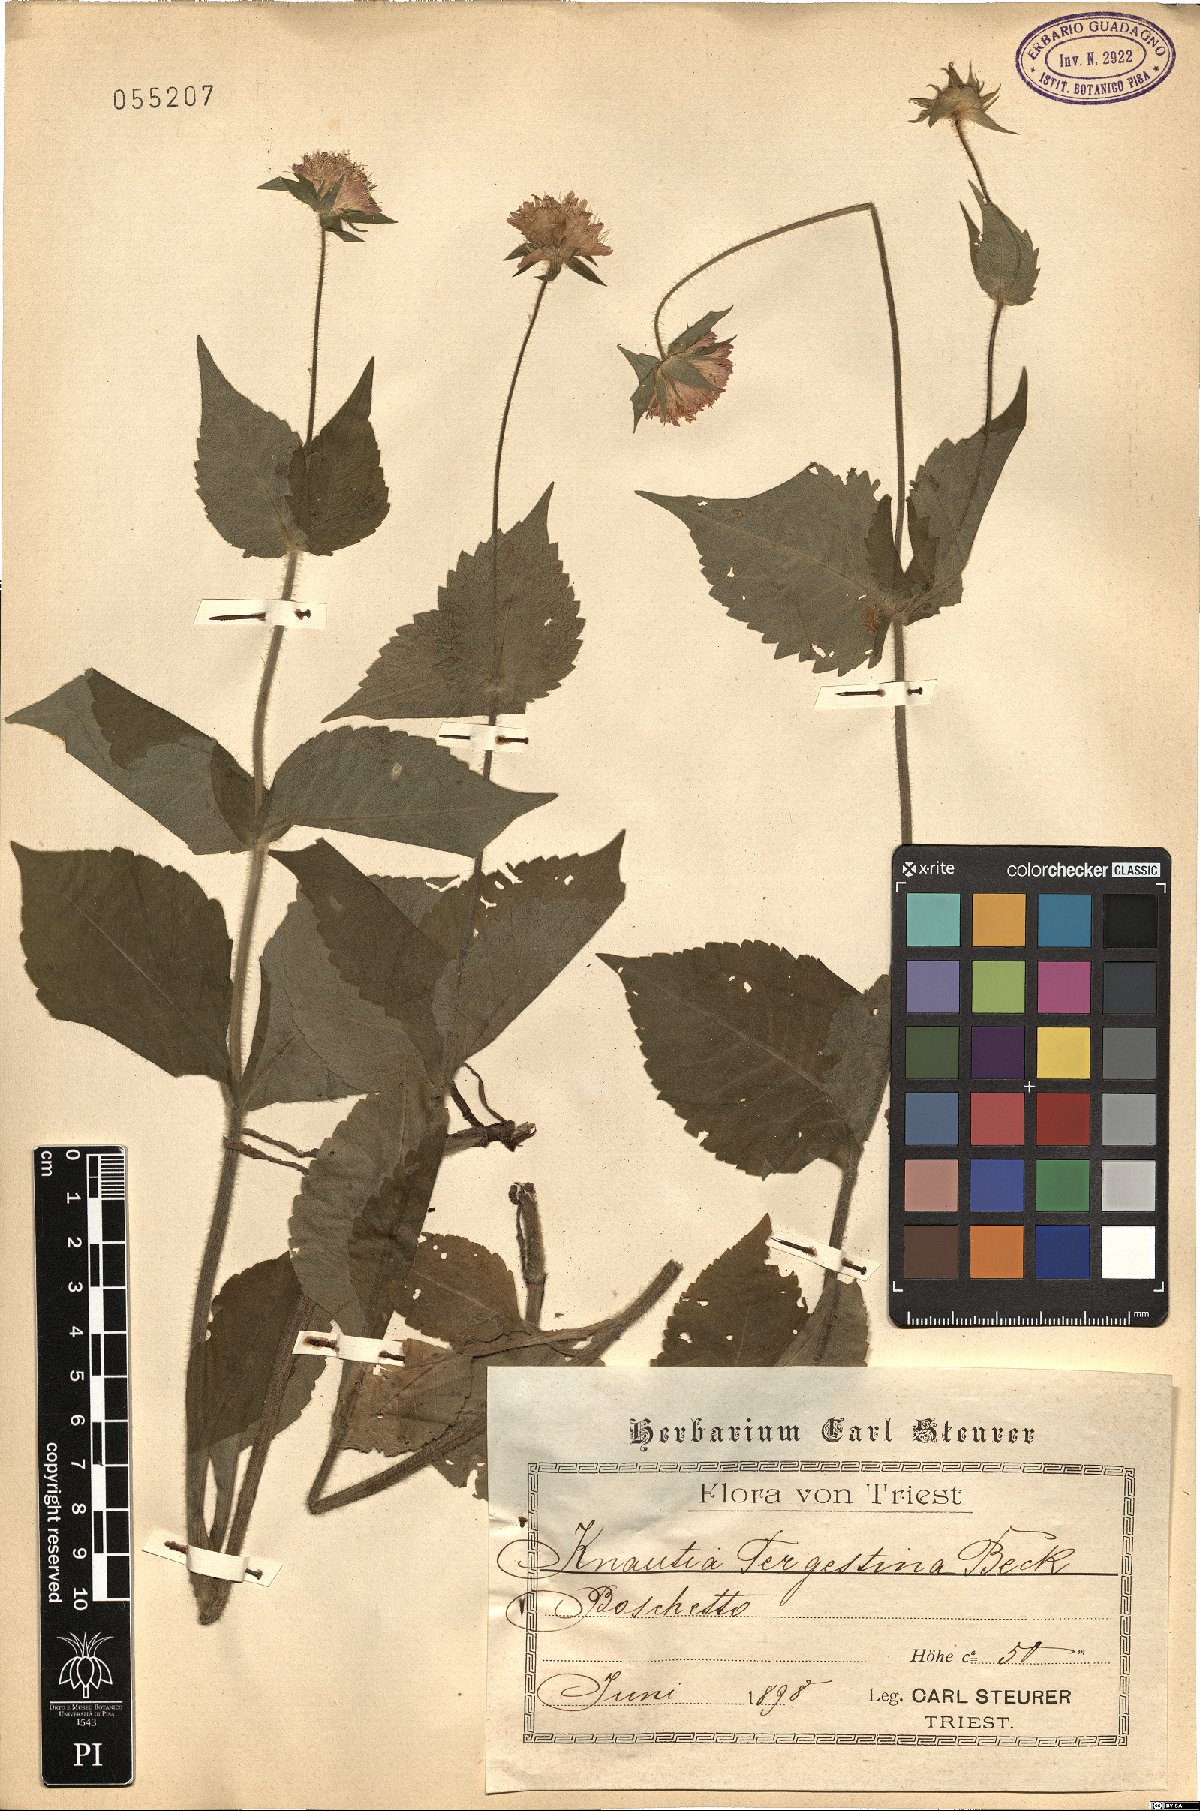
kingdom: Plantae
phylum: Tracheophyta
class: Magnoliopsida
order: Dipsacales
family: Caprifoliaceae
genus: Knautia
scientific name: Knautia drymeia
